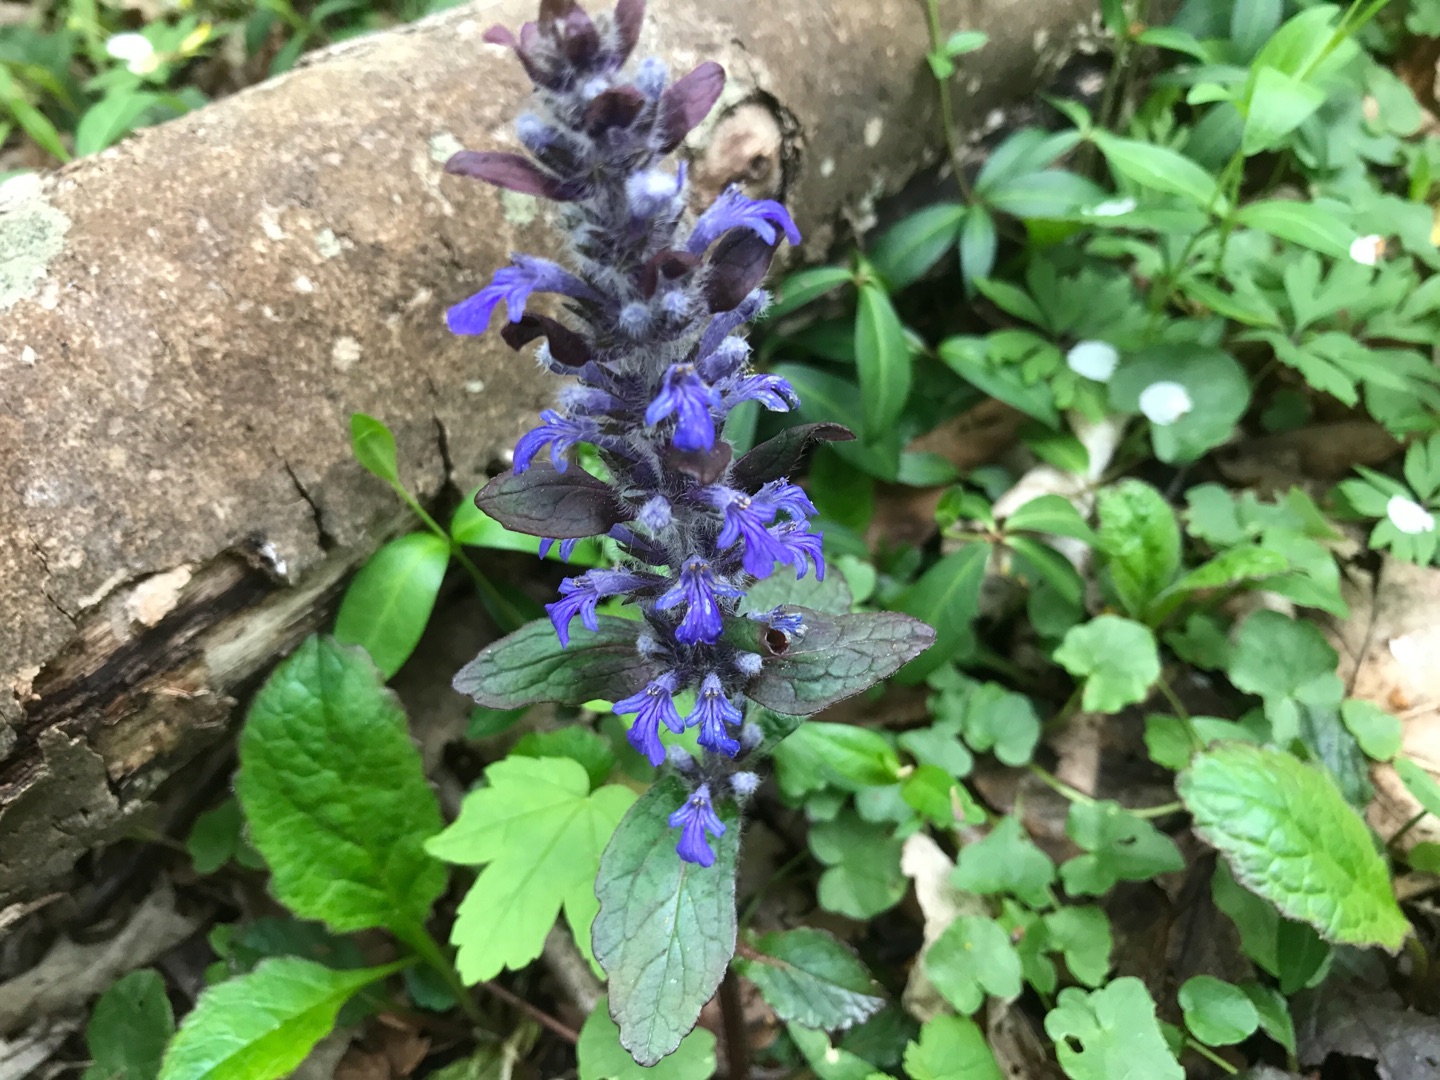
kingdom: Plantae
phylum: Tracheophyta
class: Magnoliopsida
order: Lamiales
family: Lamiaceae
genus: Ajuga
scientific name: Ajuga reptans
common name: Krybende læbeløs
